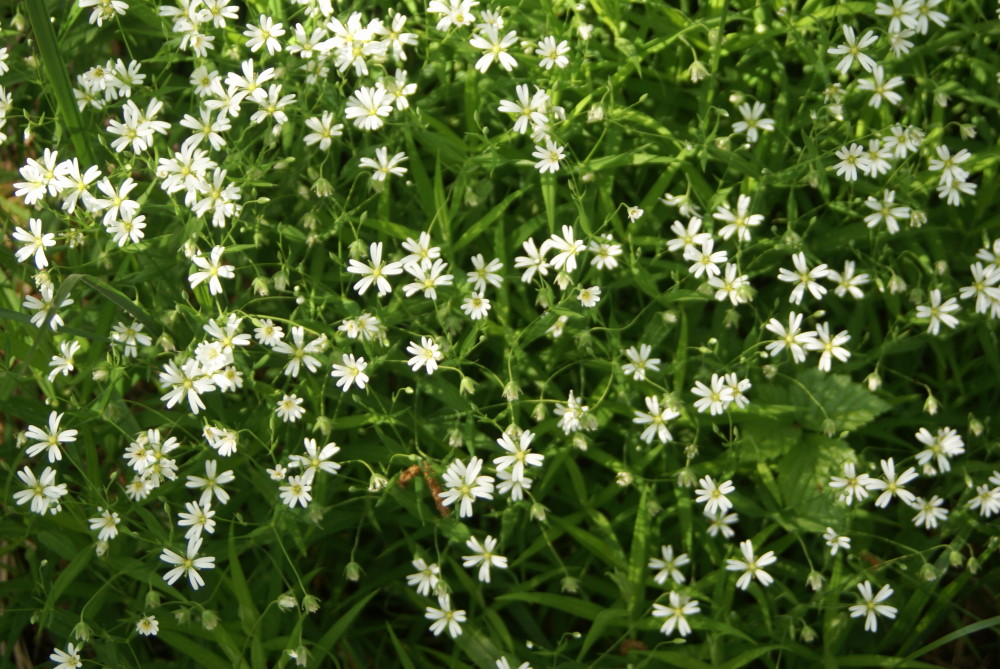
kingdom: Plantae
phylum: Tracheophyta
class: Magnoliopsida
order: Caryophyllales
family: Caryophyllaceae
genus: Rabelera
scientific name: Rabelera holostea
